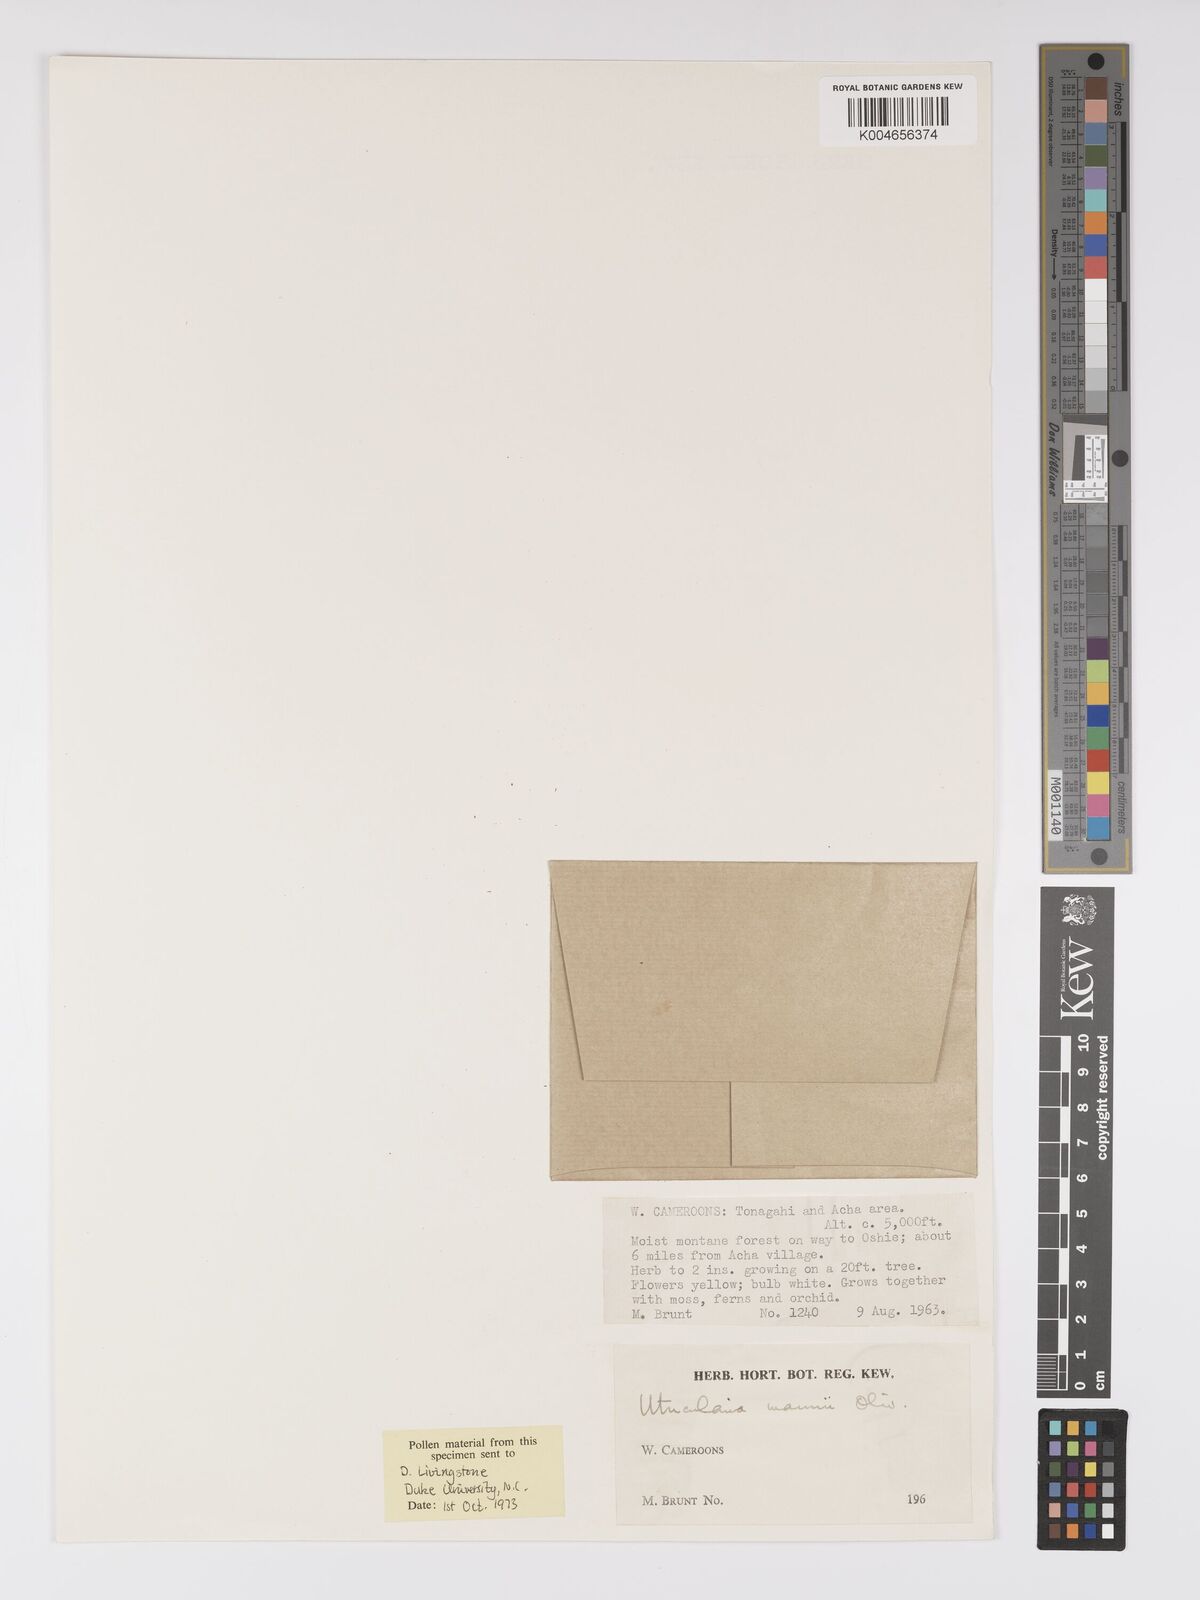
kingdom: Plantae
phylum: Tracheophyta
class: Magnoliopsida
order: Lamiales
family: Lentibulariaceae
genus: Utricularia
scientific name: Utricularia mannii
